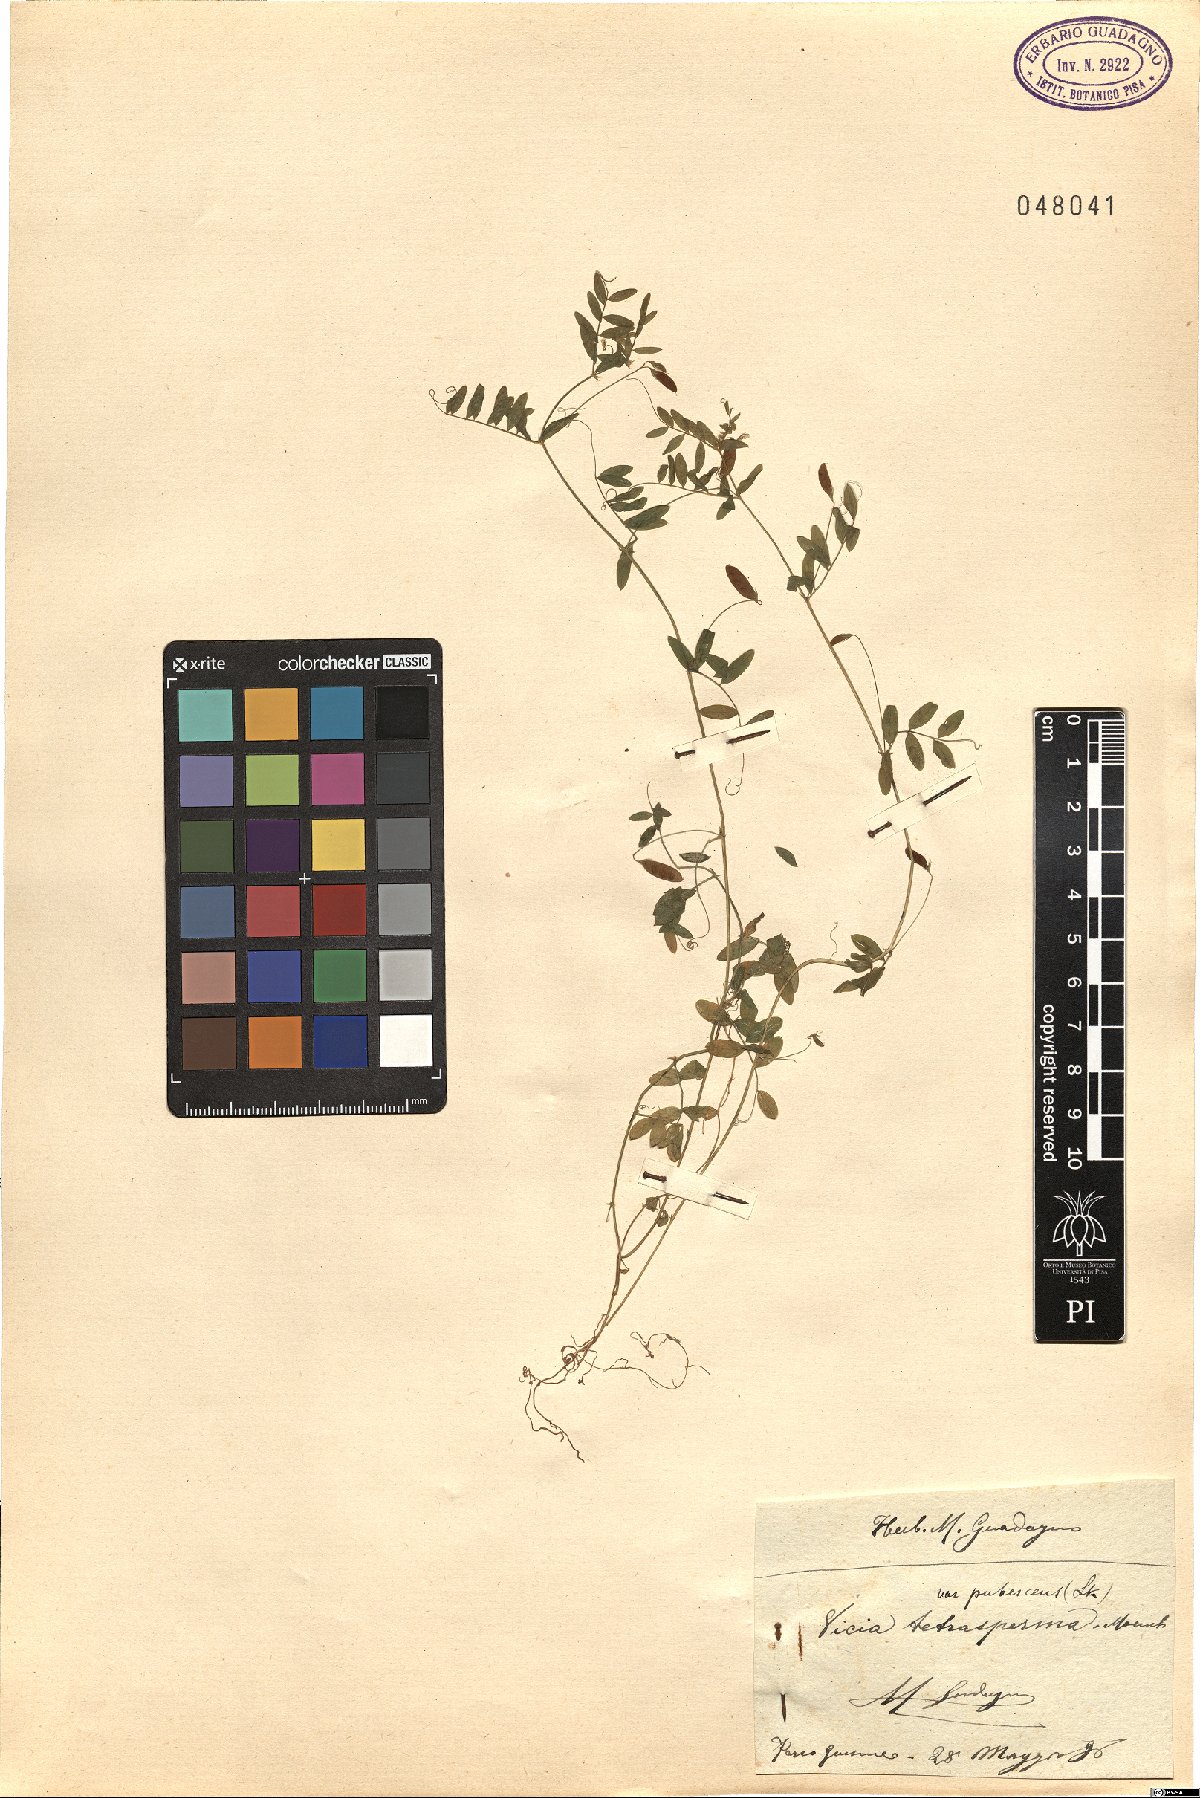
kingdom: Plantae
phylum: Tracheophyta
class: Magnoliopsida
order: Fabales
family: Fabaceae
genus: Vicia
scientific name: Vicia pubescens
